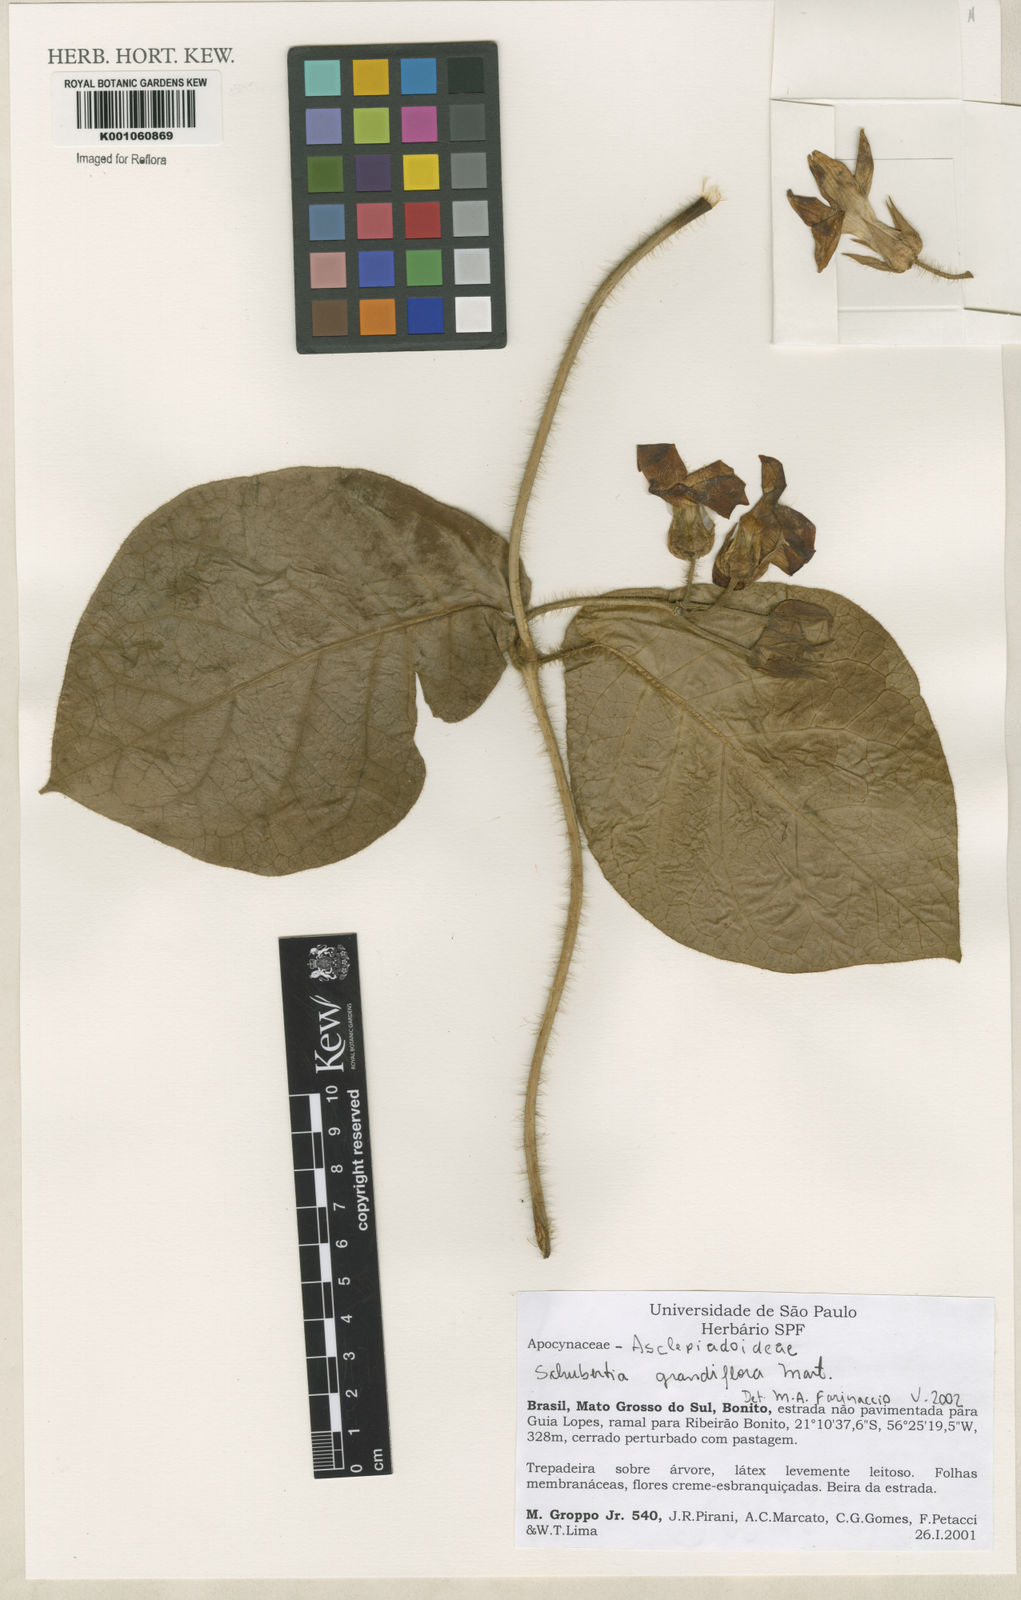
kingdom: Plantae
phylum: Tracheophyta
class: Magnoliopsida
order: Gentianales
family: Apocynaceae
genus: Macroscepis
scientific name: Macroscepis grandiflora
